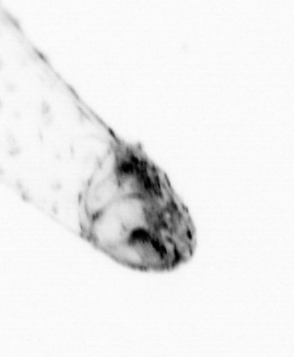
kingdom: Animalia
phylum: Chaetognatha
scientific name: Chaetognatha
